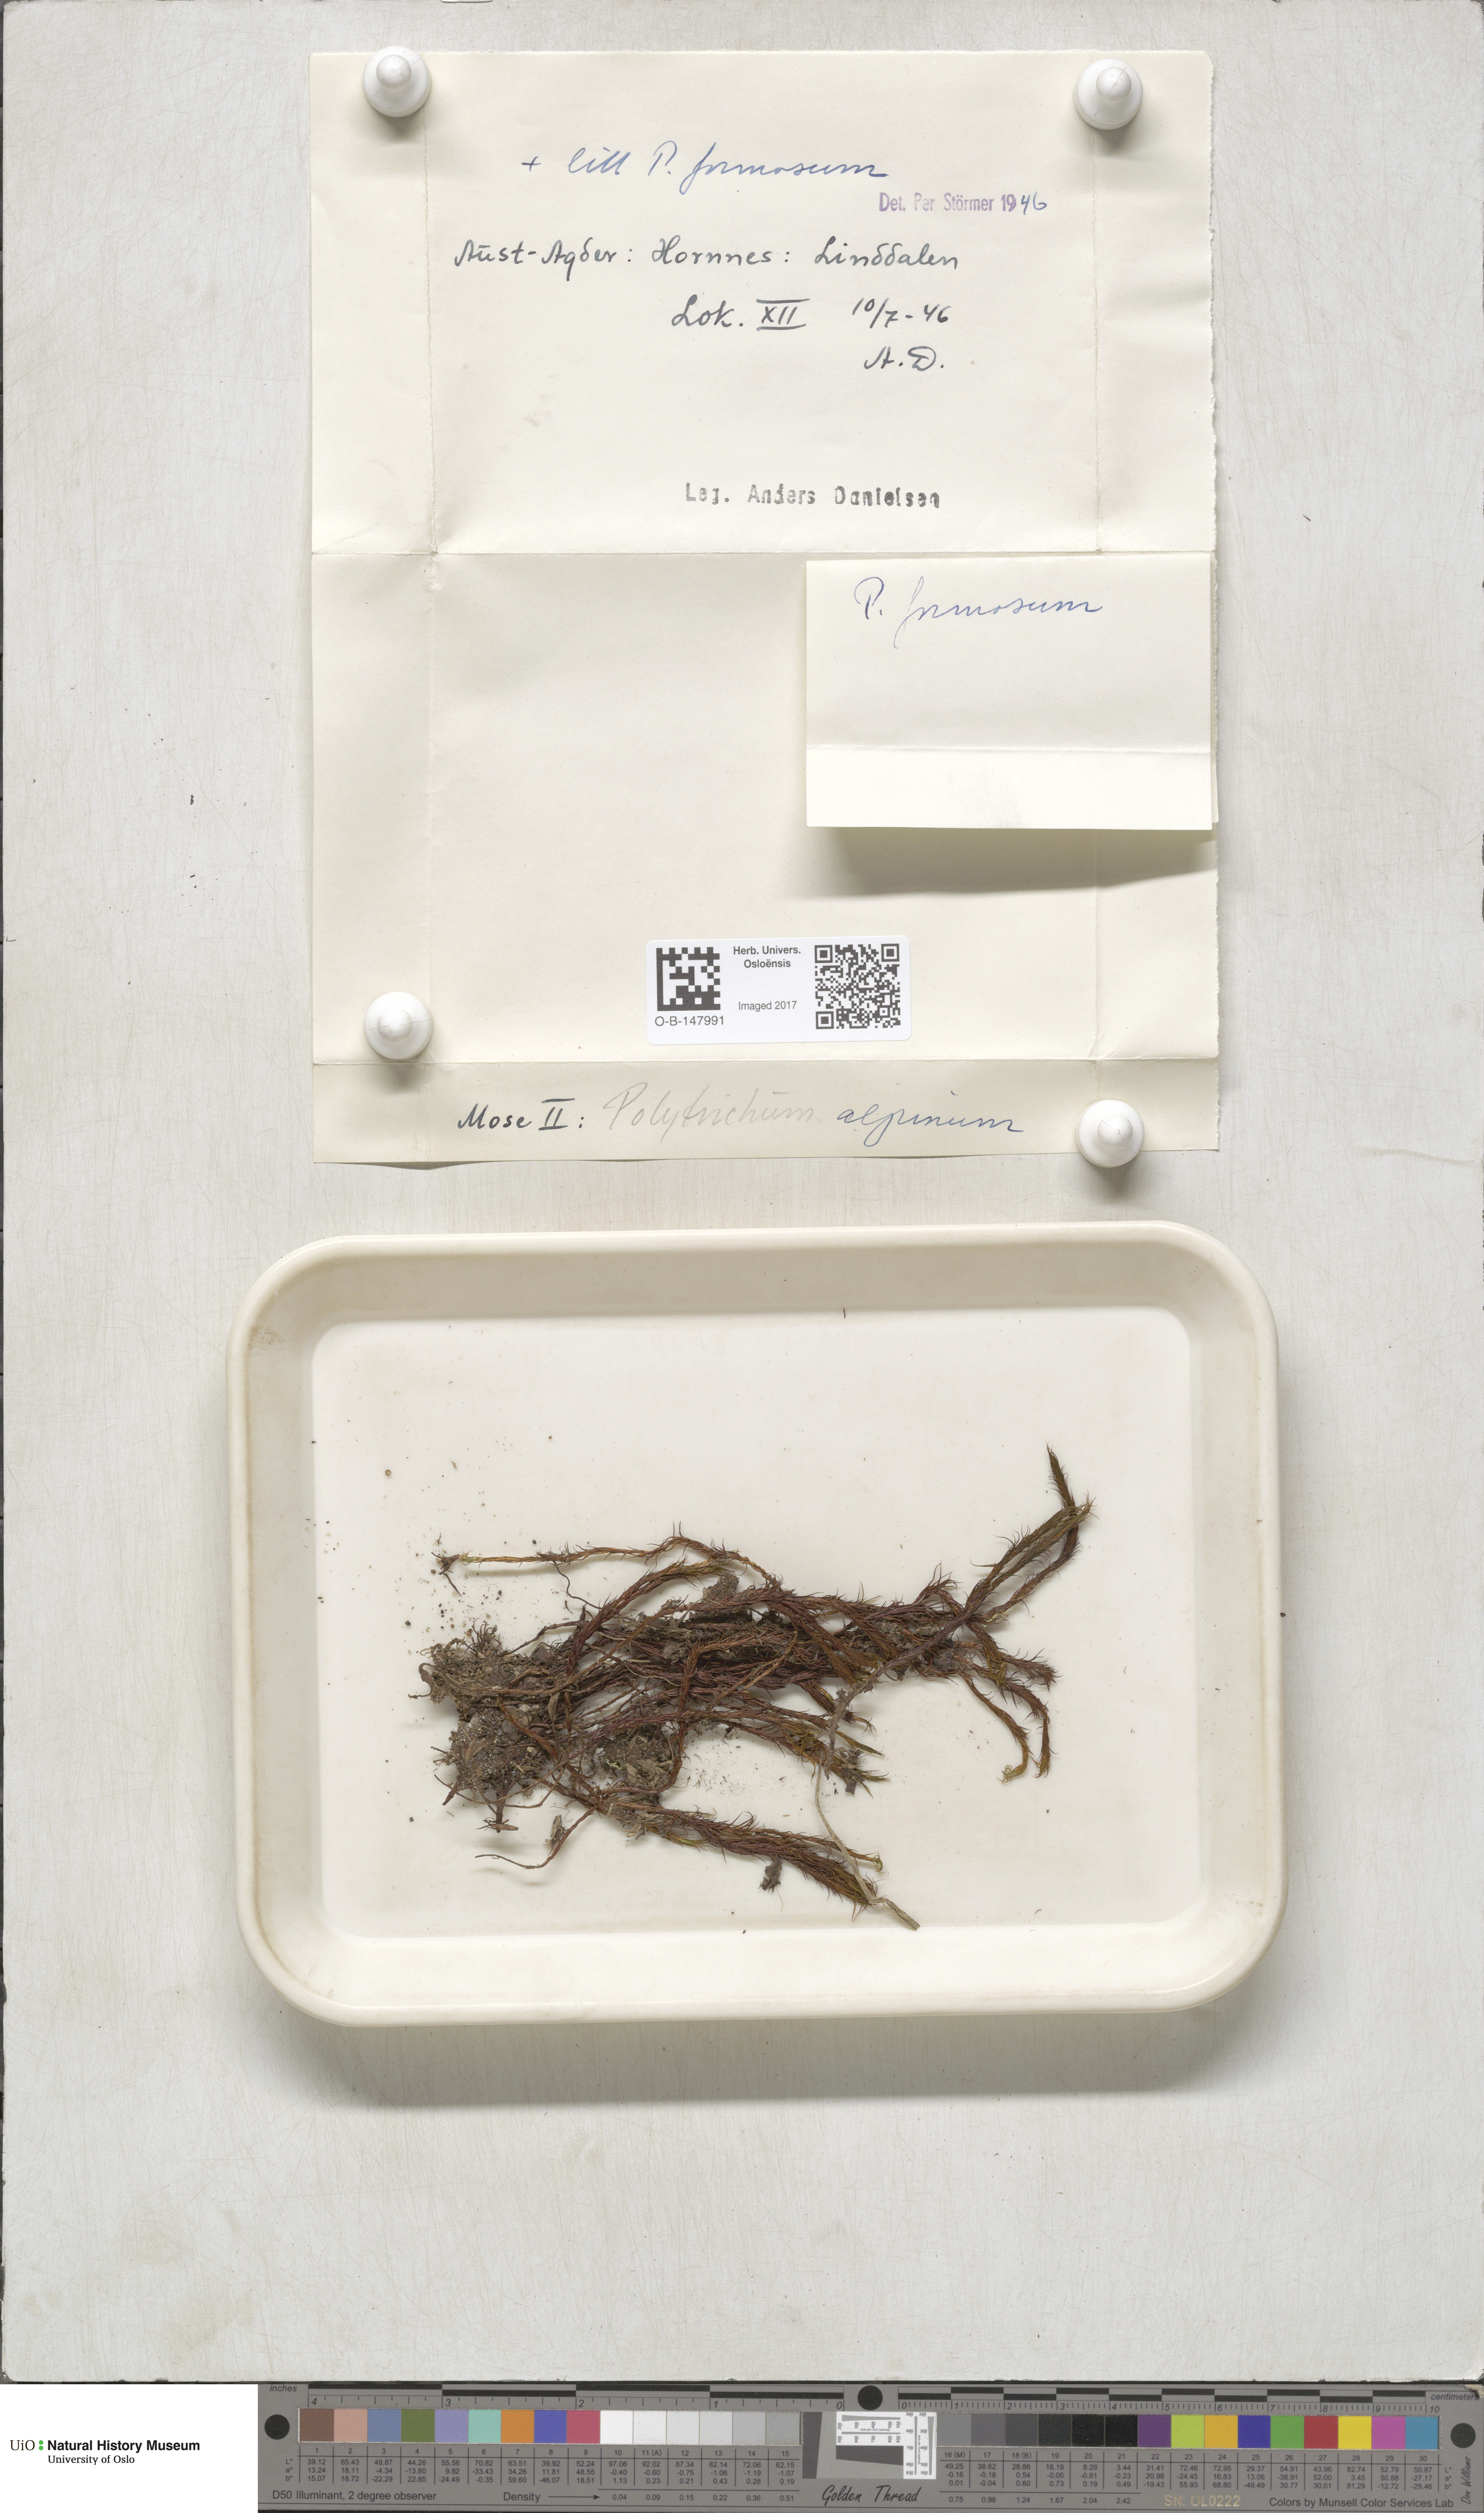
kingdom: Plantae
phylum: Bryophyta
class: Polytrichopsida
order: Polytrichales
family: Polytrichaceae
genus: Polytrichastrum
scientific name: Polytrichastrum alpinum
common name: Alpine haircap
